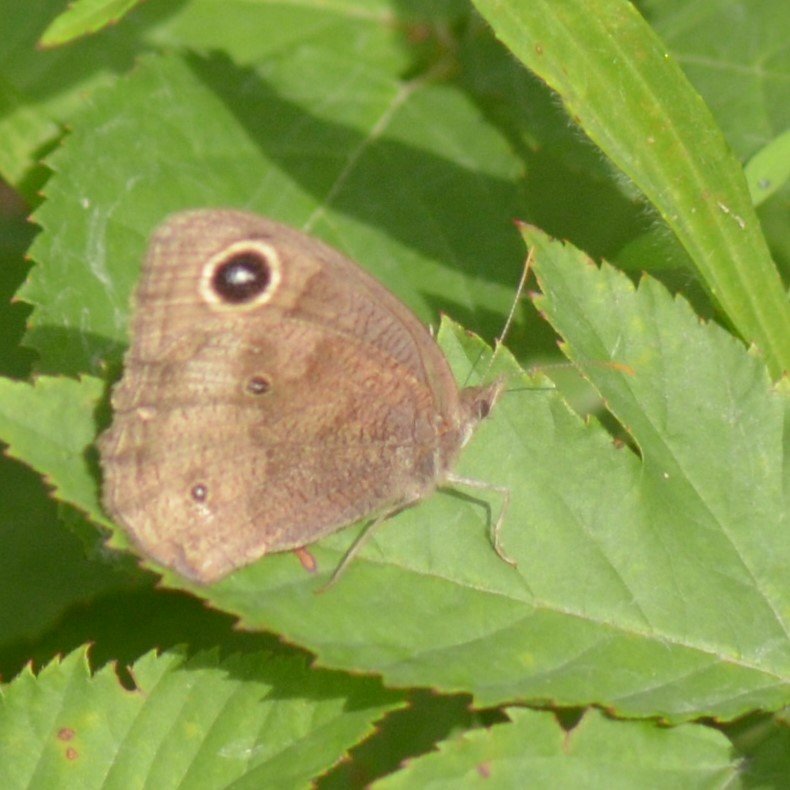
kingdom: Animalia
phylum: Arthropoda
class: Insecta
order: Lepidoptera
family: Nymphalidae
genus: Cercyonis
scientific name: Cercyonis pegala
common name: Common Wood-Nymph
